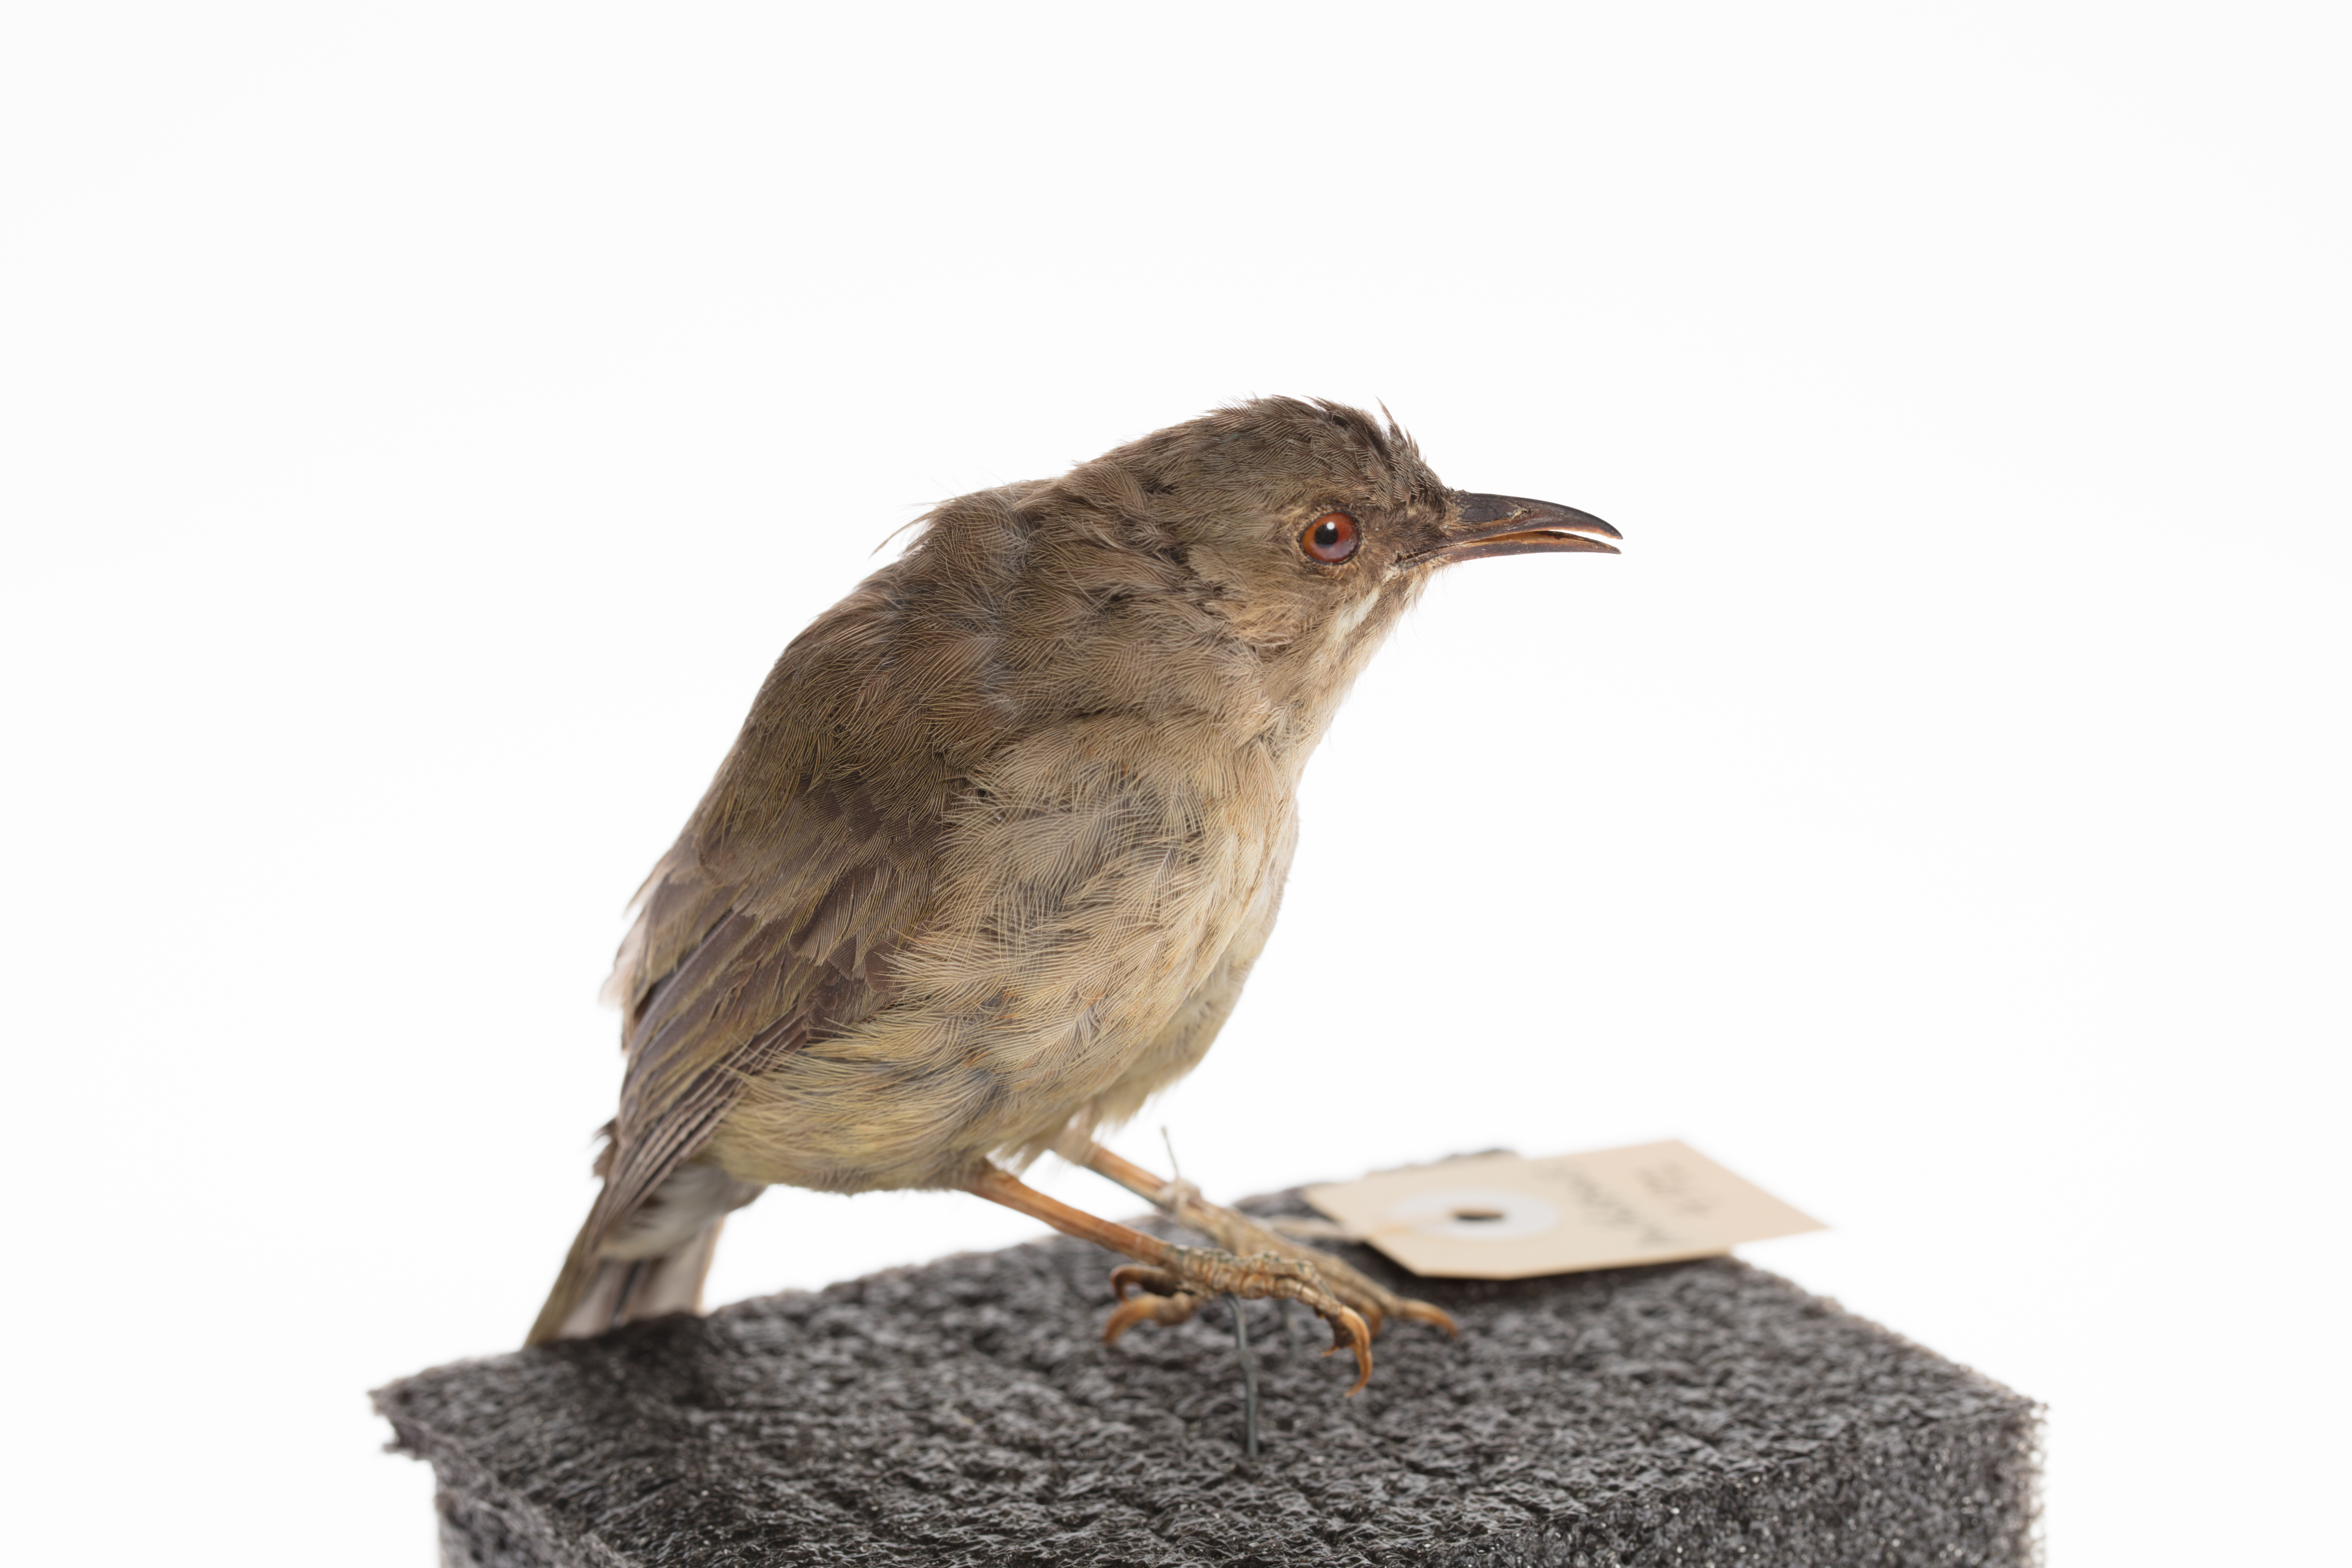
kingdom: Animalia
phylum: Chordata
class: Aves
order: Passeriformes
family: Meliphagidae
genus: Anthornis
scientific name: Anthornis melanura
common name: New zealand bellbird
